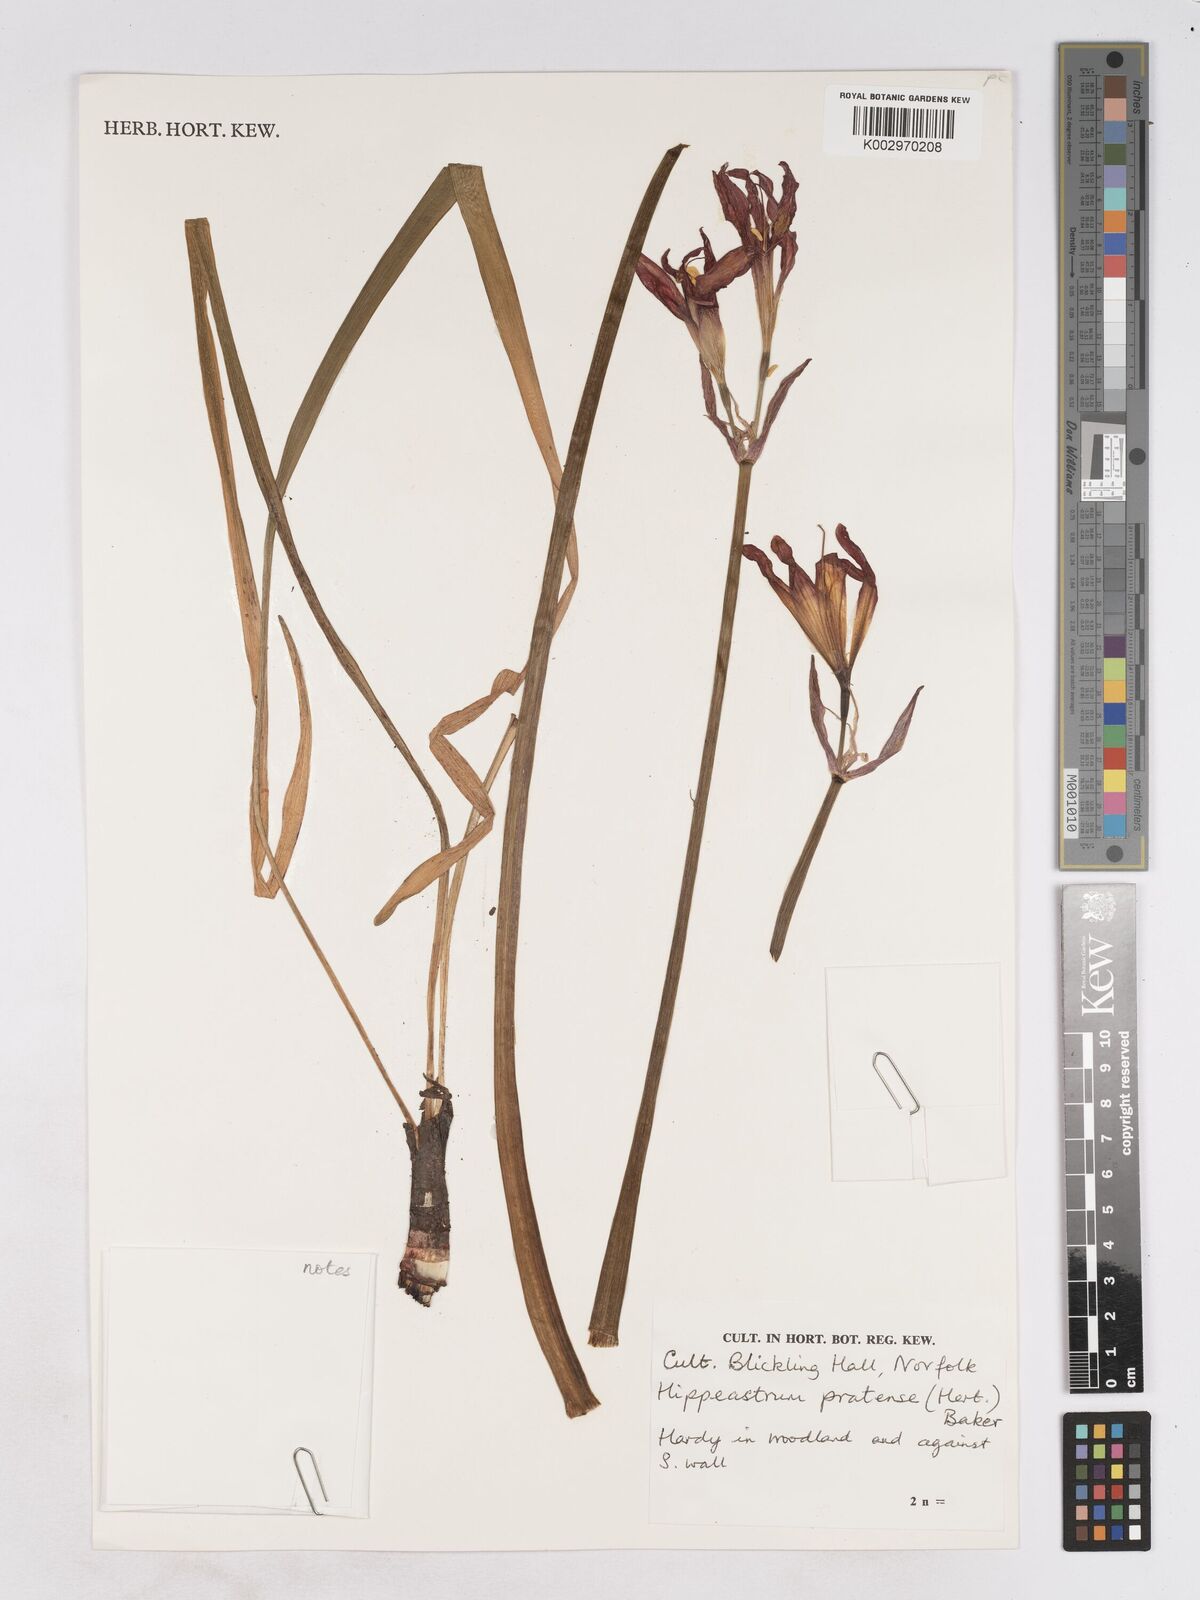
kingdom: Plantae
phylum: Tracheophyta
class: Liliopsida
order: Asparagales
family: Amaryllidaceae
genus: Phycella
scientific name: Phycella chilensis
